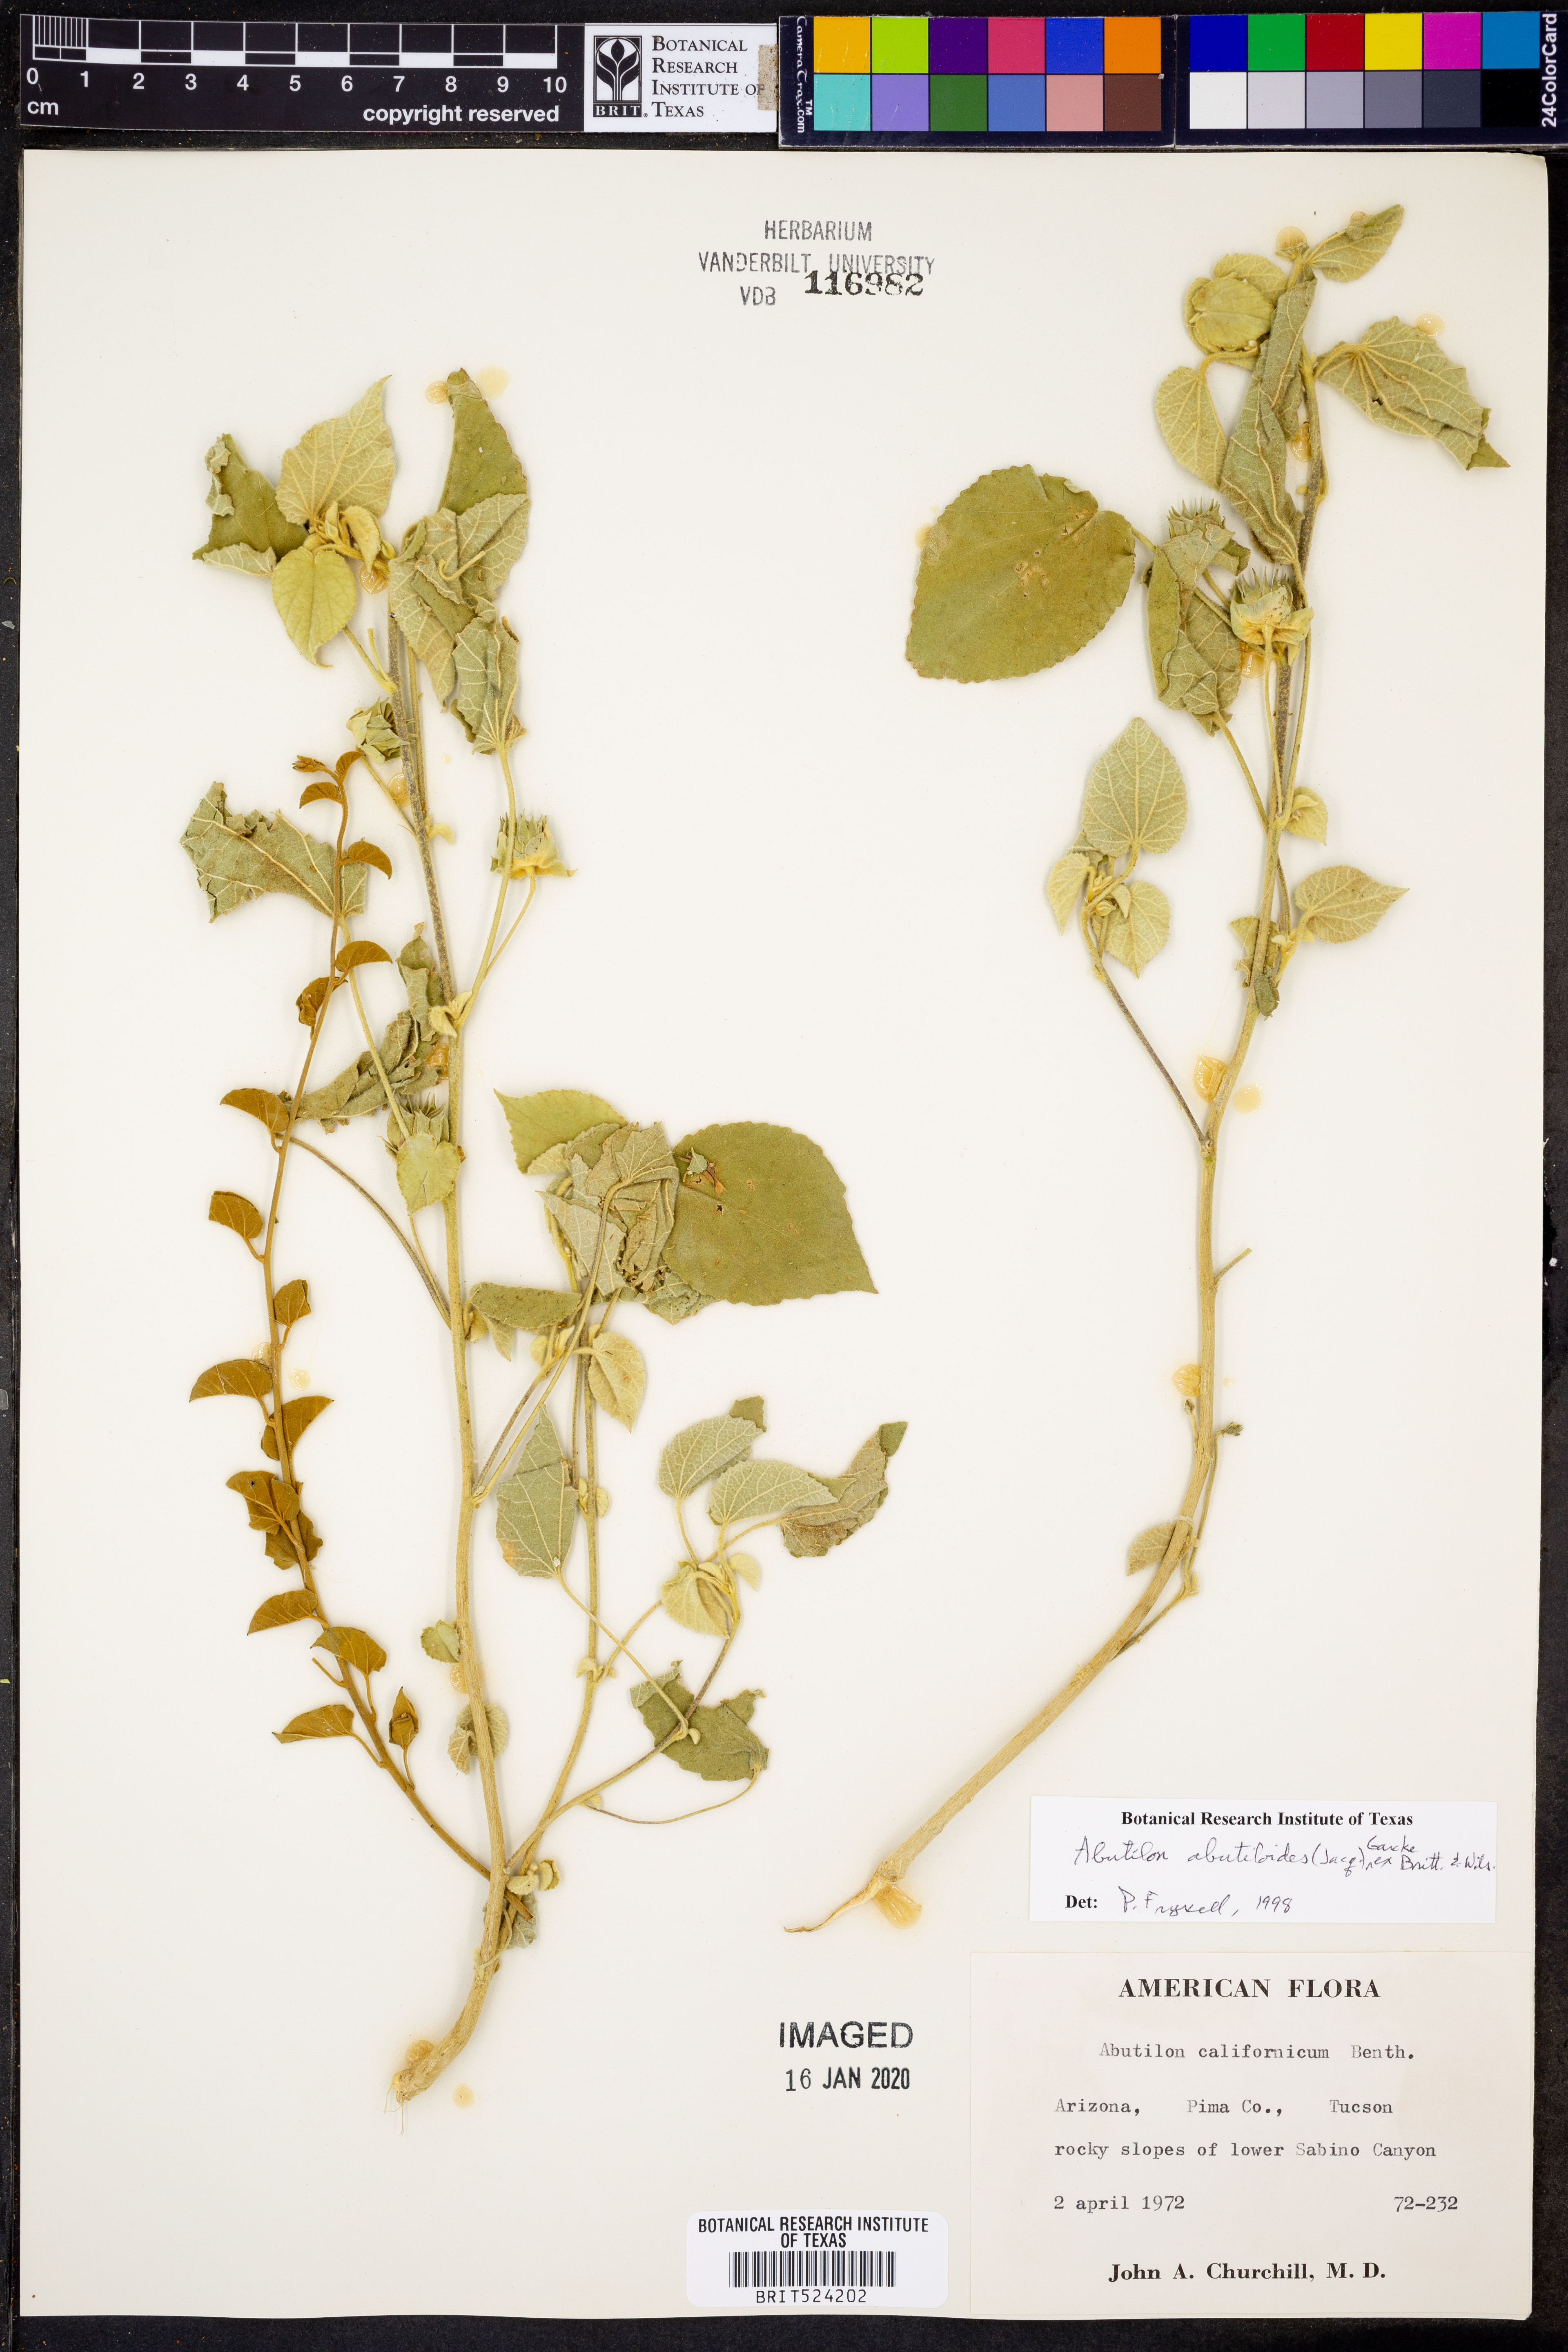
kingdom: Plantae
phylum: Tracheophyta
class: Magnoliopsida
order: Malvales
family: Malvaceae
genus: Abutilon
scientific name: Abutilon abutiloides
